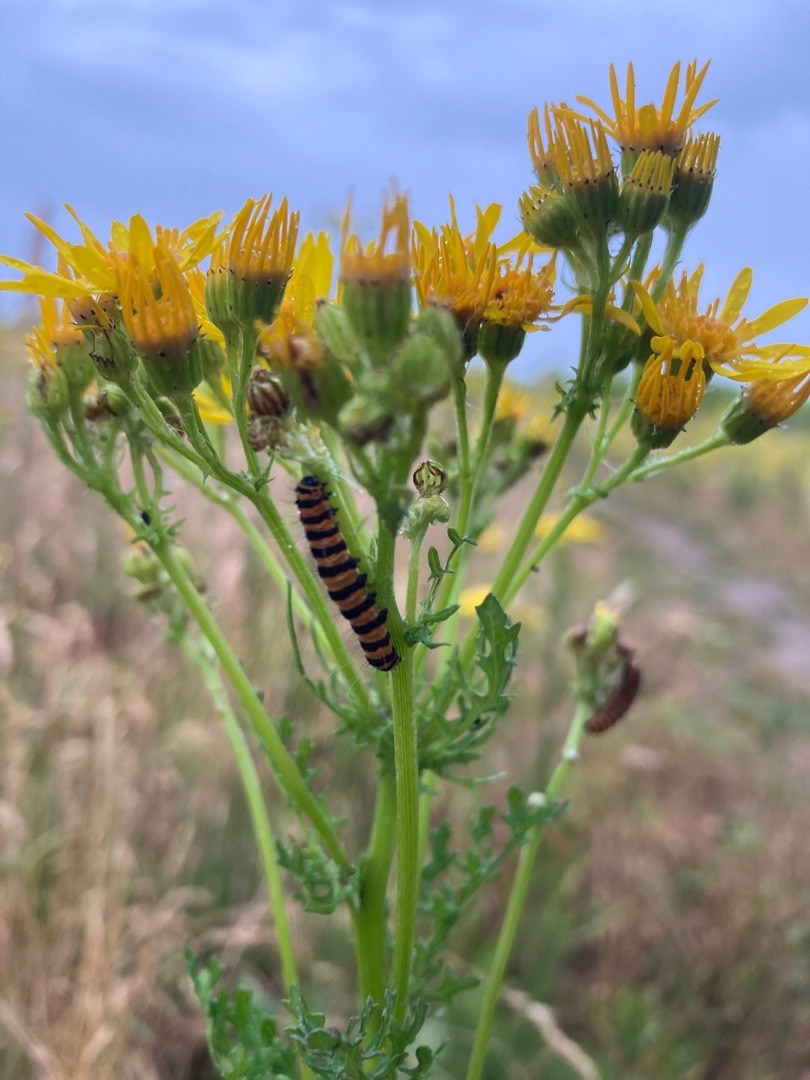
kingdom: Animalia
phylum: Arthropoda
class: Insecta
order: Lepidoptera
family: Erebidae
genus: Tyria
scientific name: Tyria jacobaeae
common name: Blodplet
